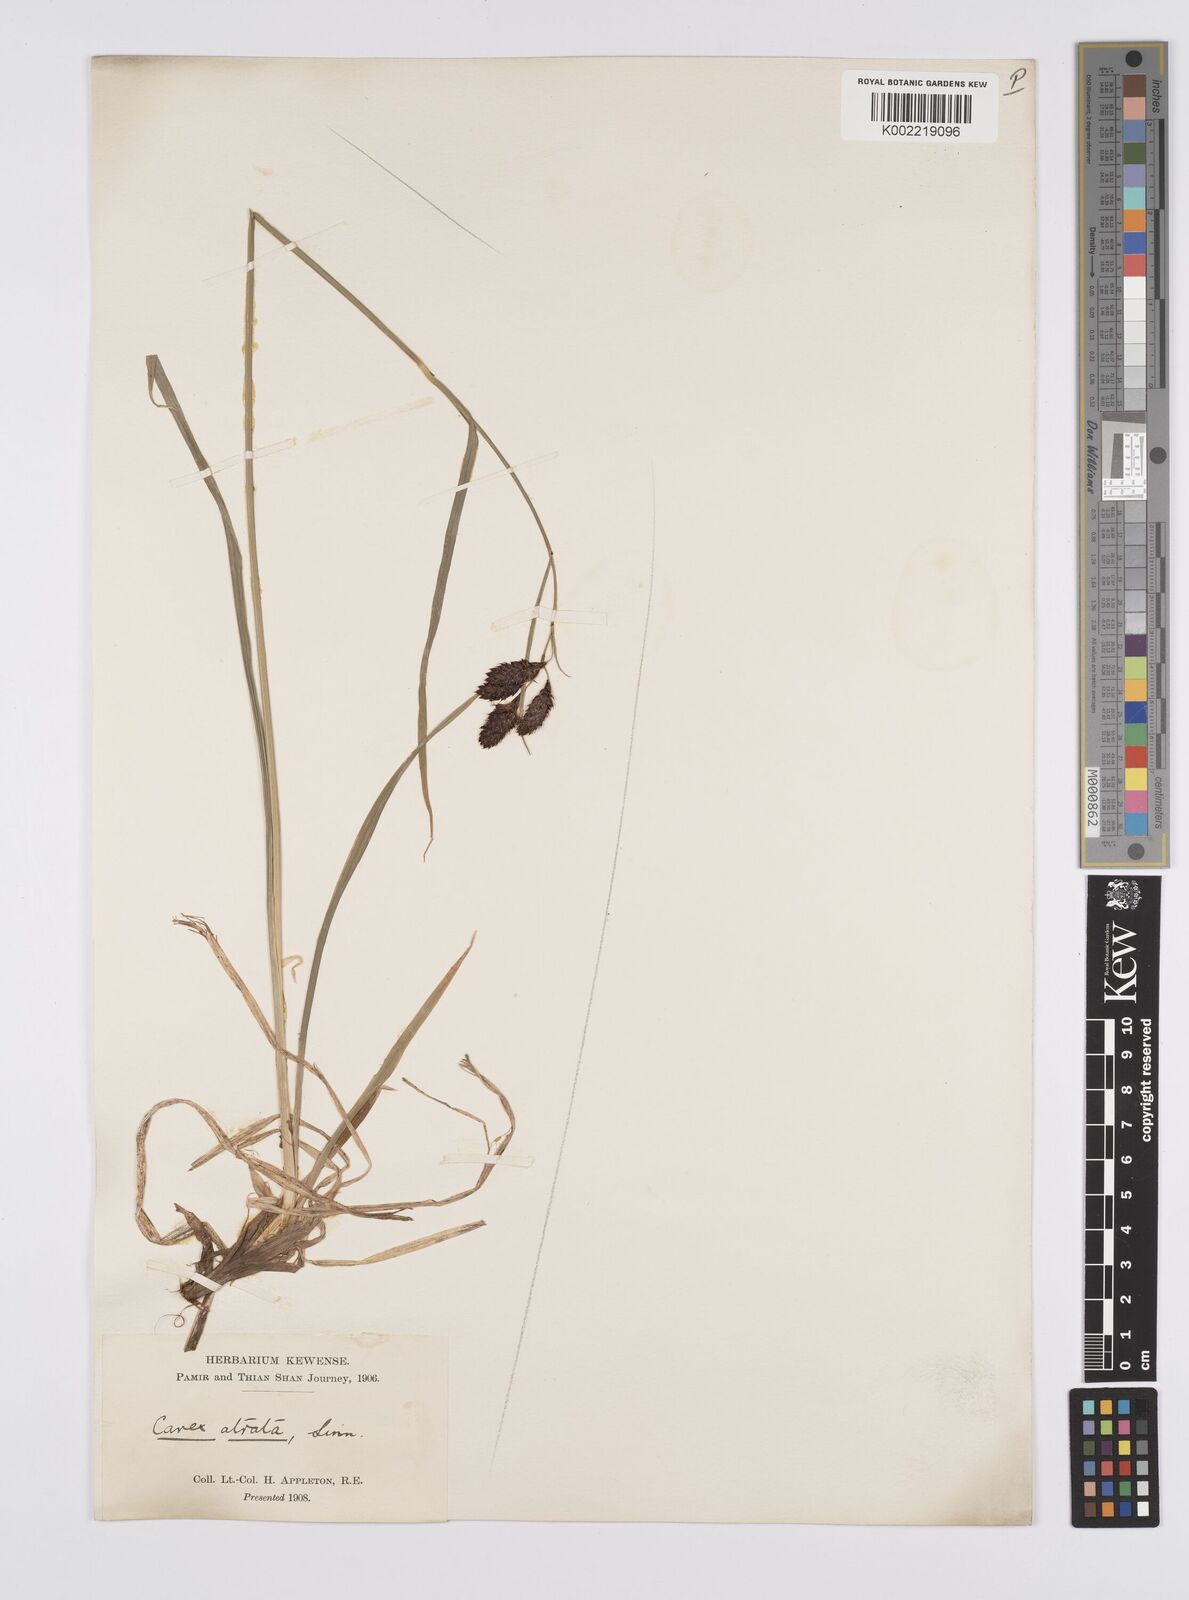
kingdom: Plantae
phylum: Tracheophyta
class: Liliopsida
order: Poales
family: Cyperaceae
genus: Carex
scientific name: Carex aterrima
